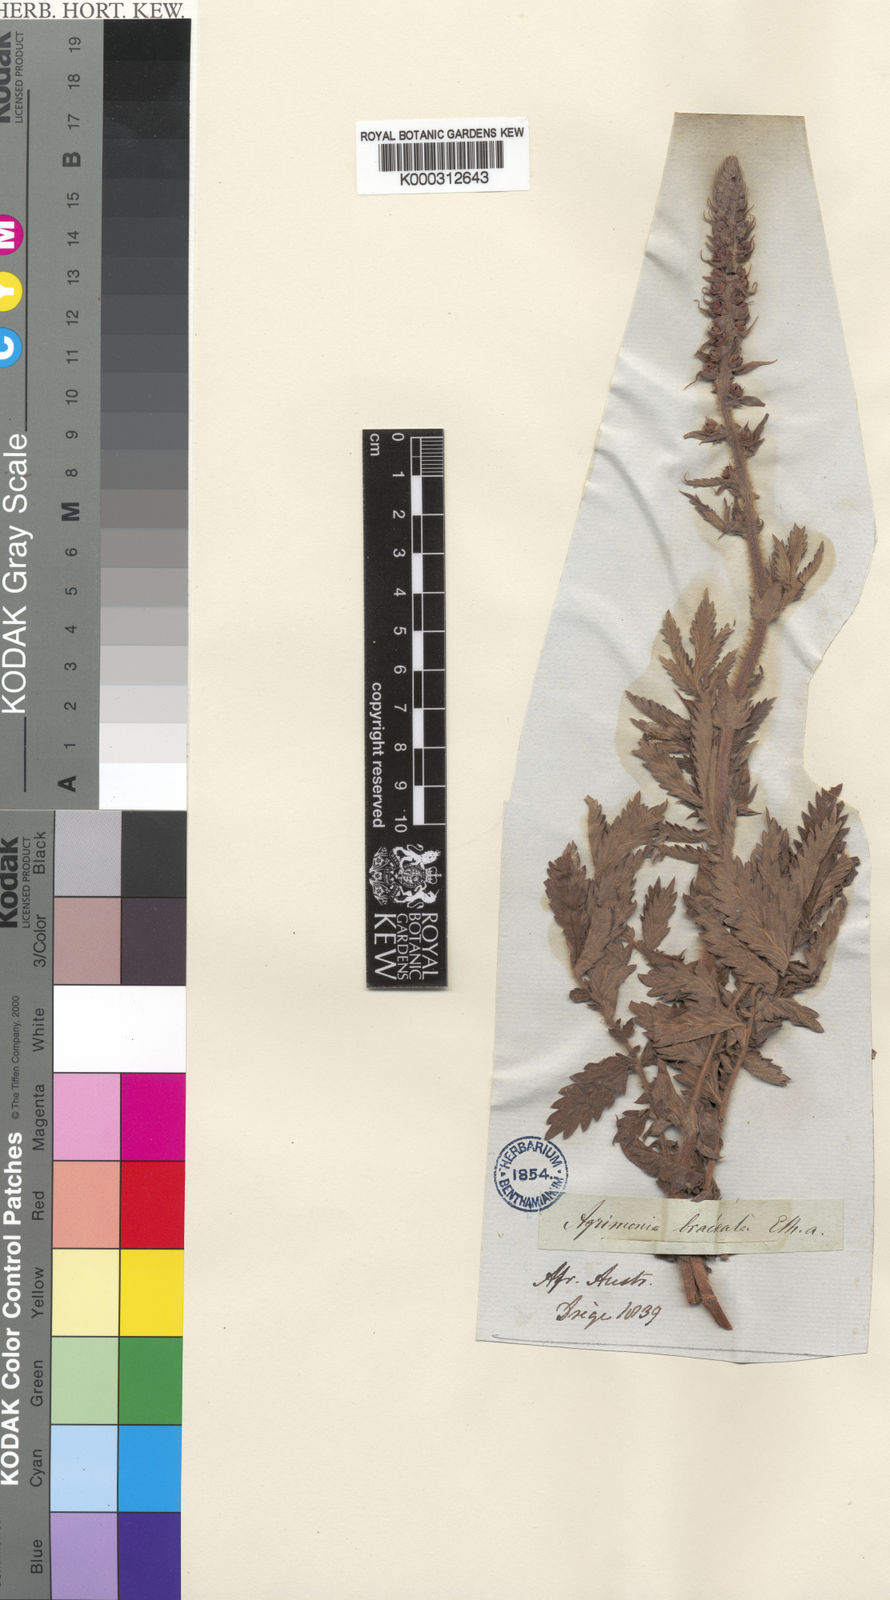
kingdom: Plantae
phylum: Tracheophyta
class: Magnoliopsida
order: Rosales
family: Rosaceae
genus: Agrimonia
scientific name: Agrimonia bracteata
